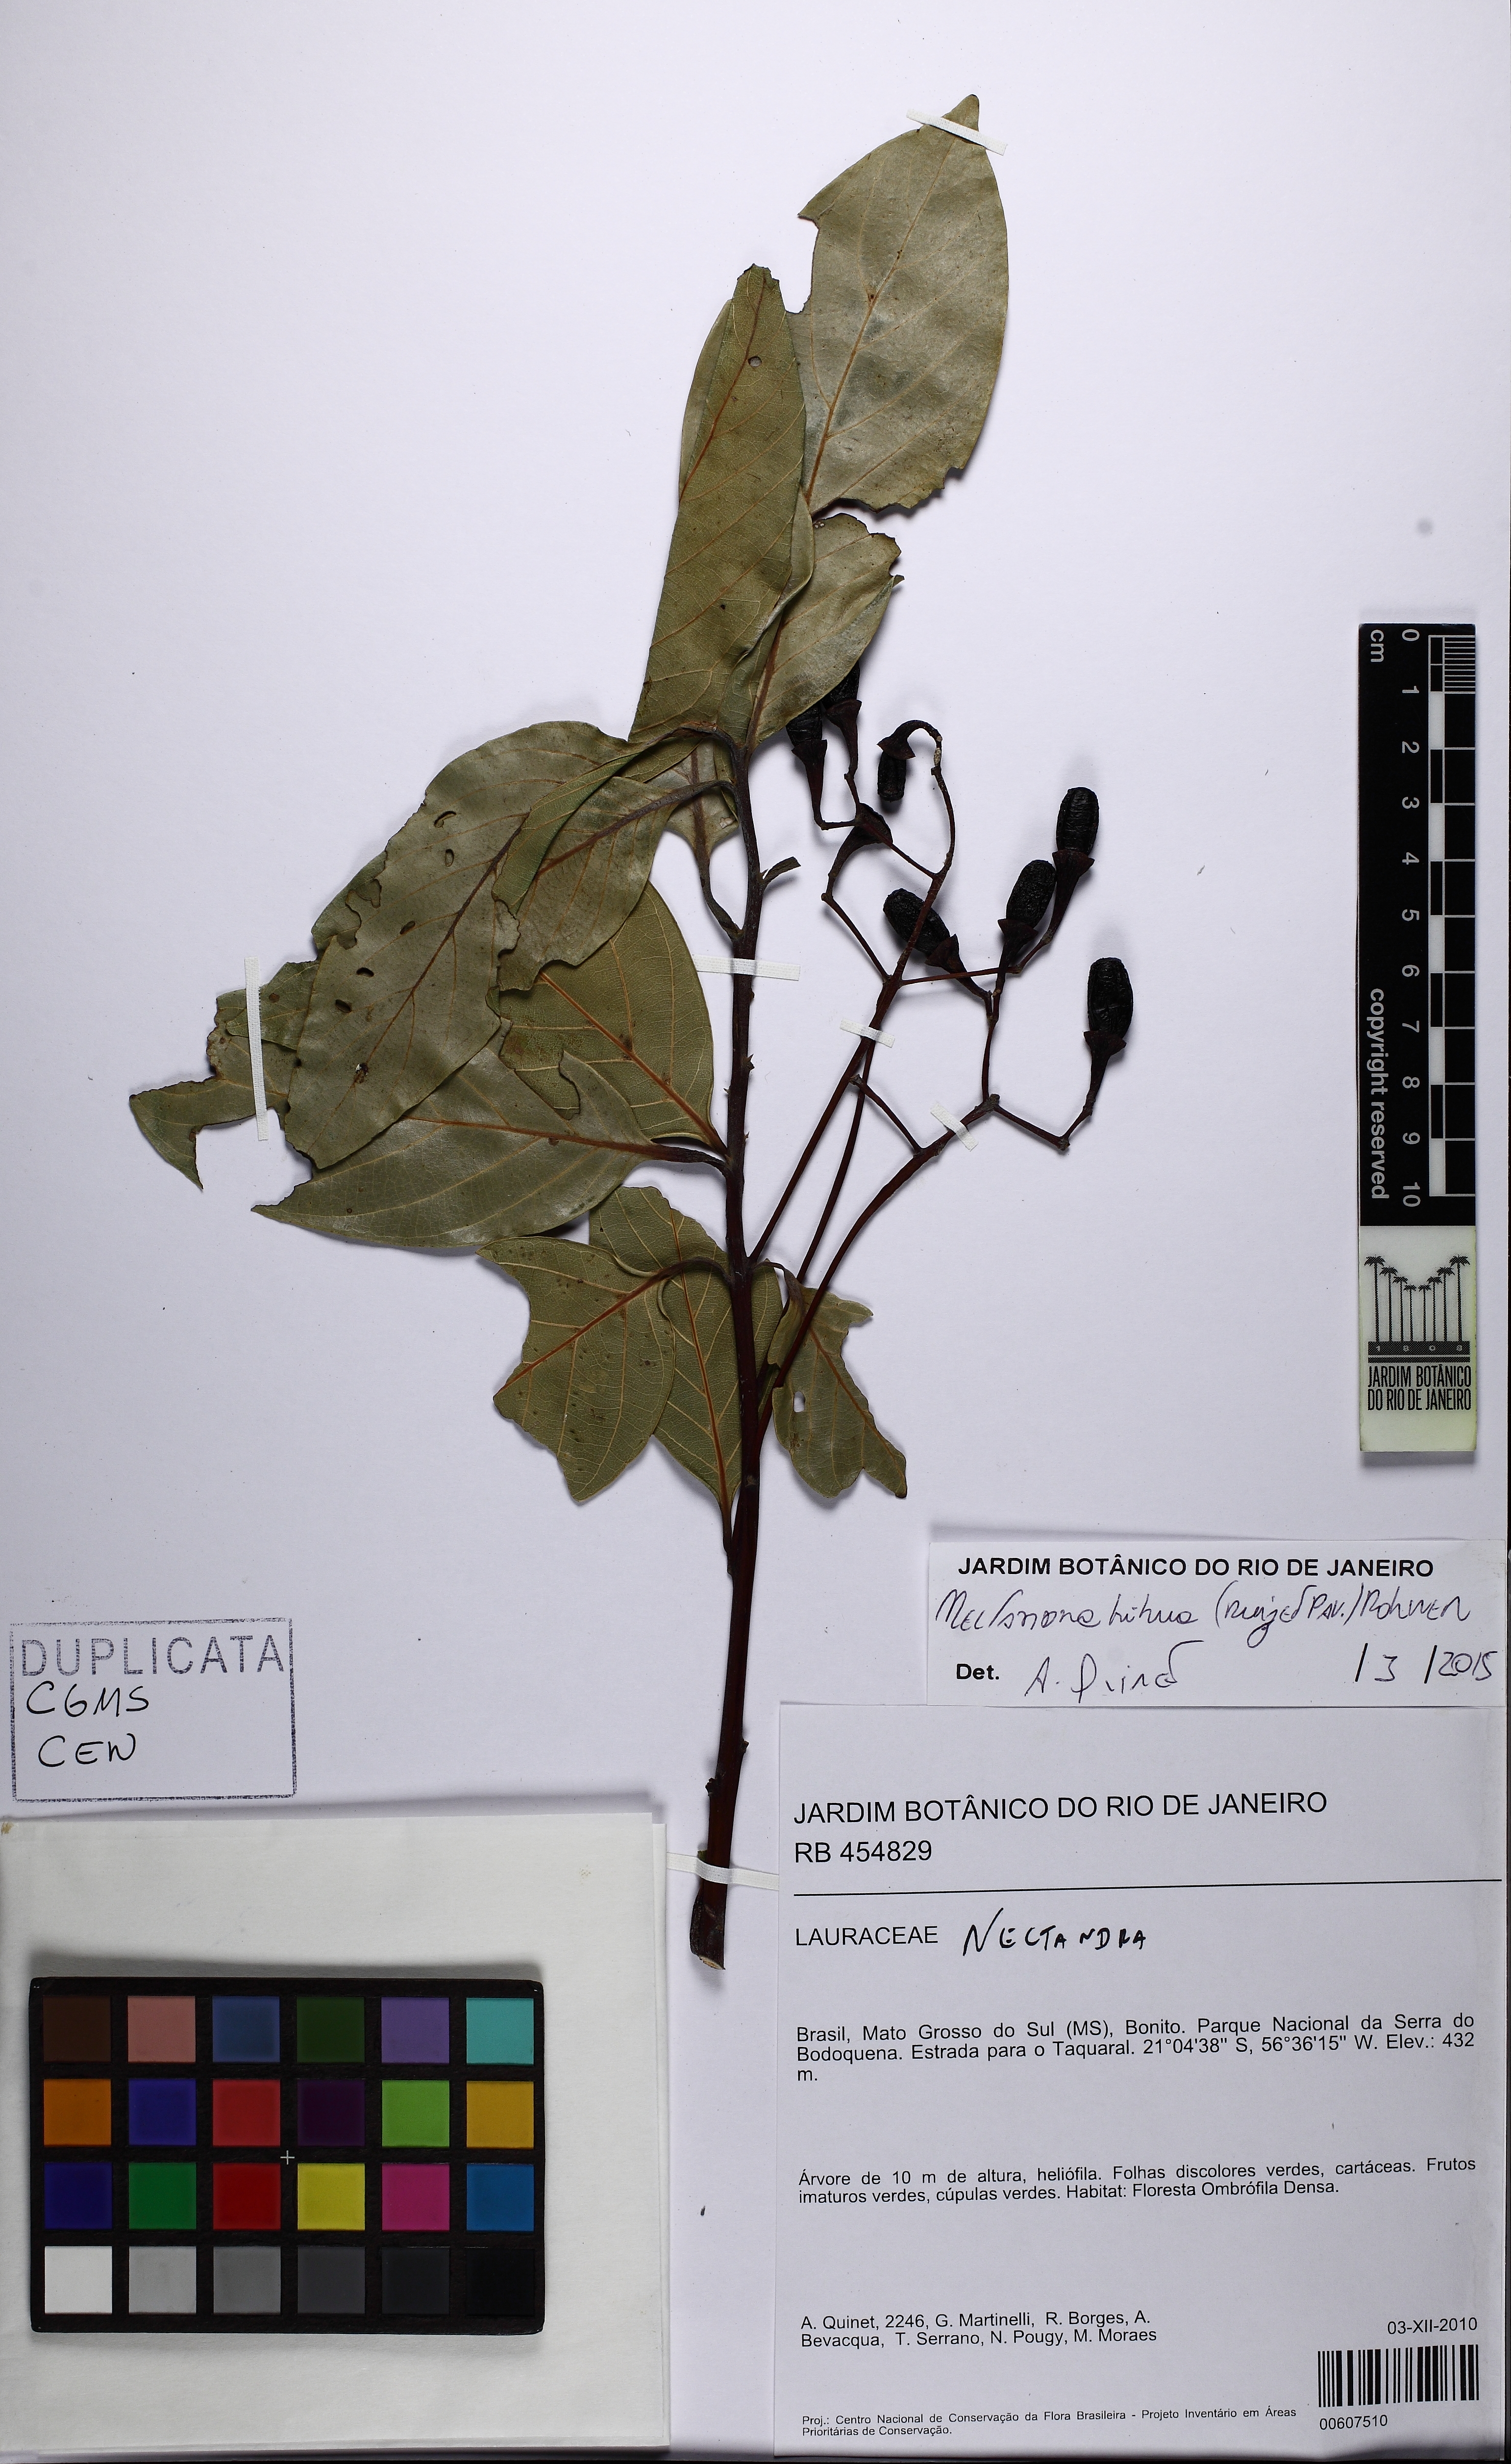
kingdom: Plantae
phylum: Tracheophyta
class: Magnoliopsida
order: Laurales
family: Lauraceae
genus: Nectandra
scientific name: Nectandra hihua
